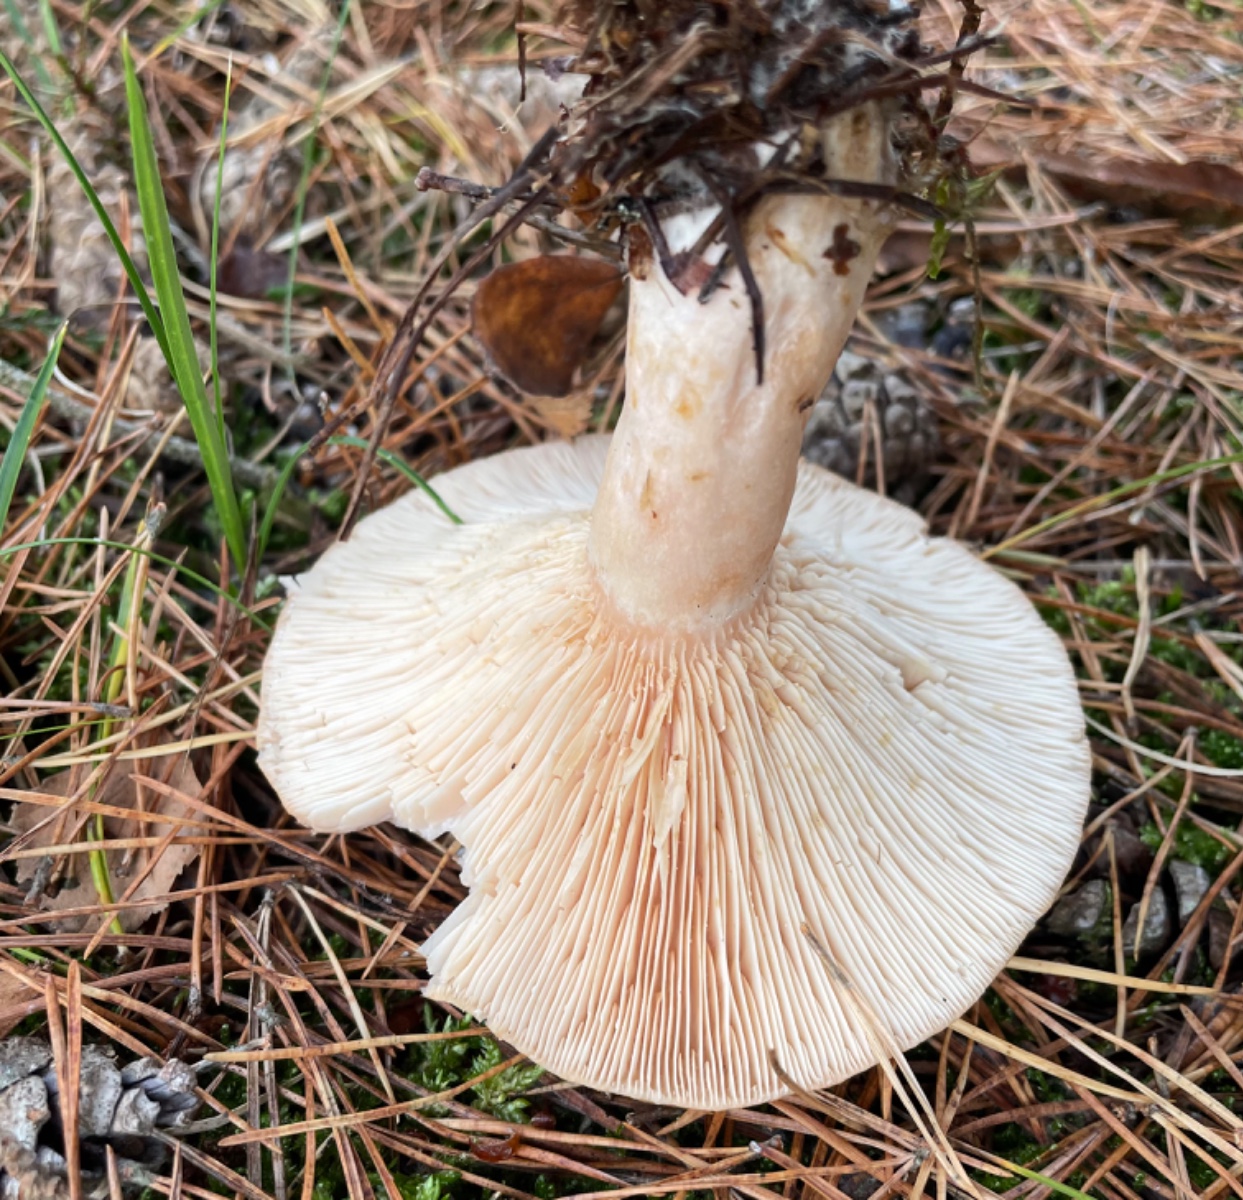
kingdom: Fungi
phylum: Basidiomycota
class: Agaricomycetes
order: Russulales
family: Russulaceae
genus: Lactarius
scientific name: Lactarius
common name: mælkehat
